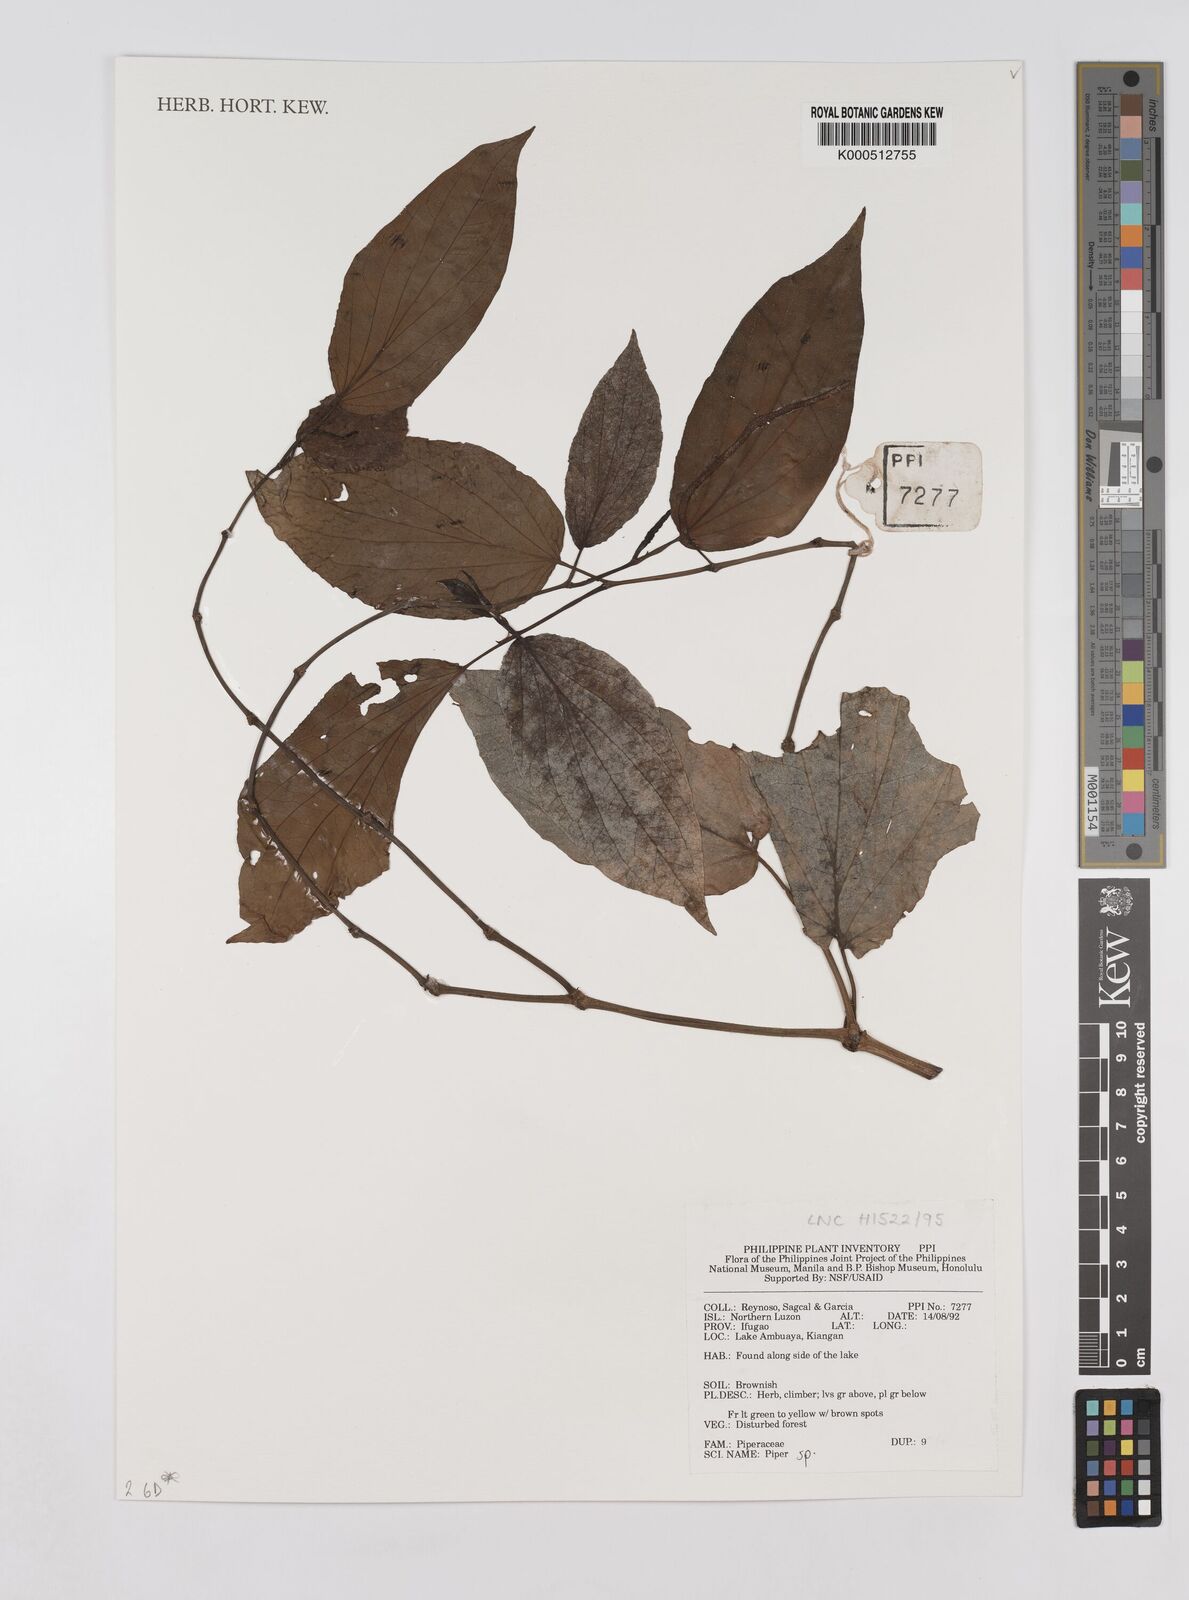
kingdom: Plantae
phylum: Tracheophyta
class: Magnoliopsida
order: Piperales
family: Piperaceae
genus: Piper
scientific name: Piper
